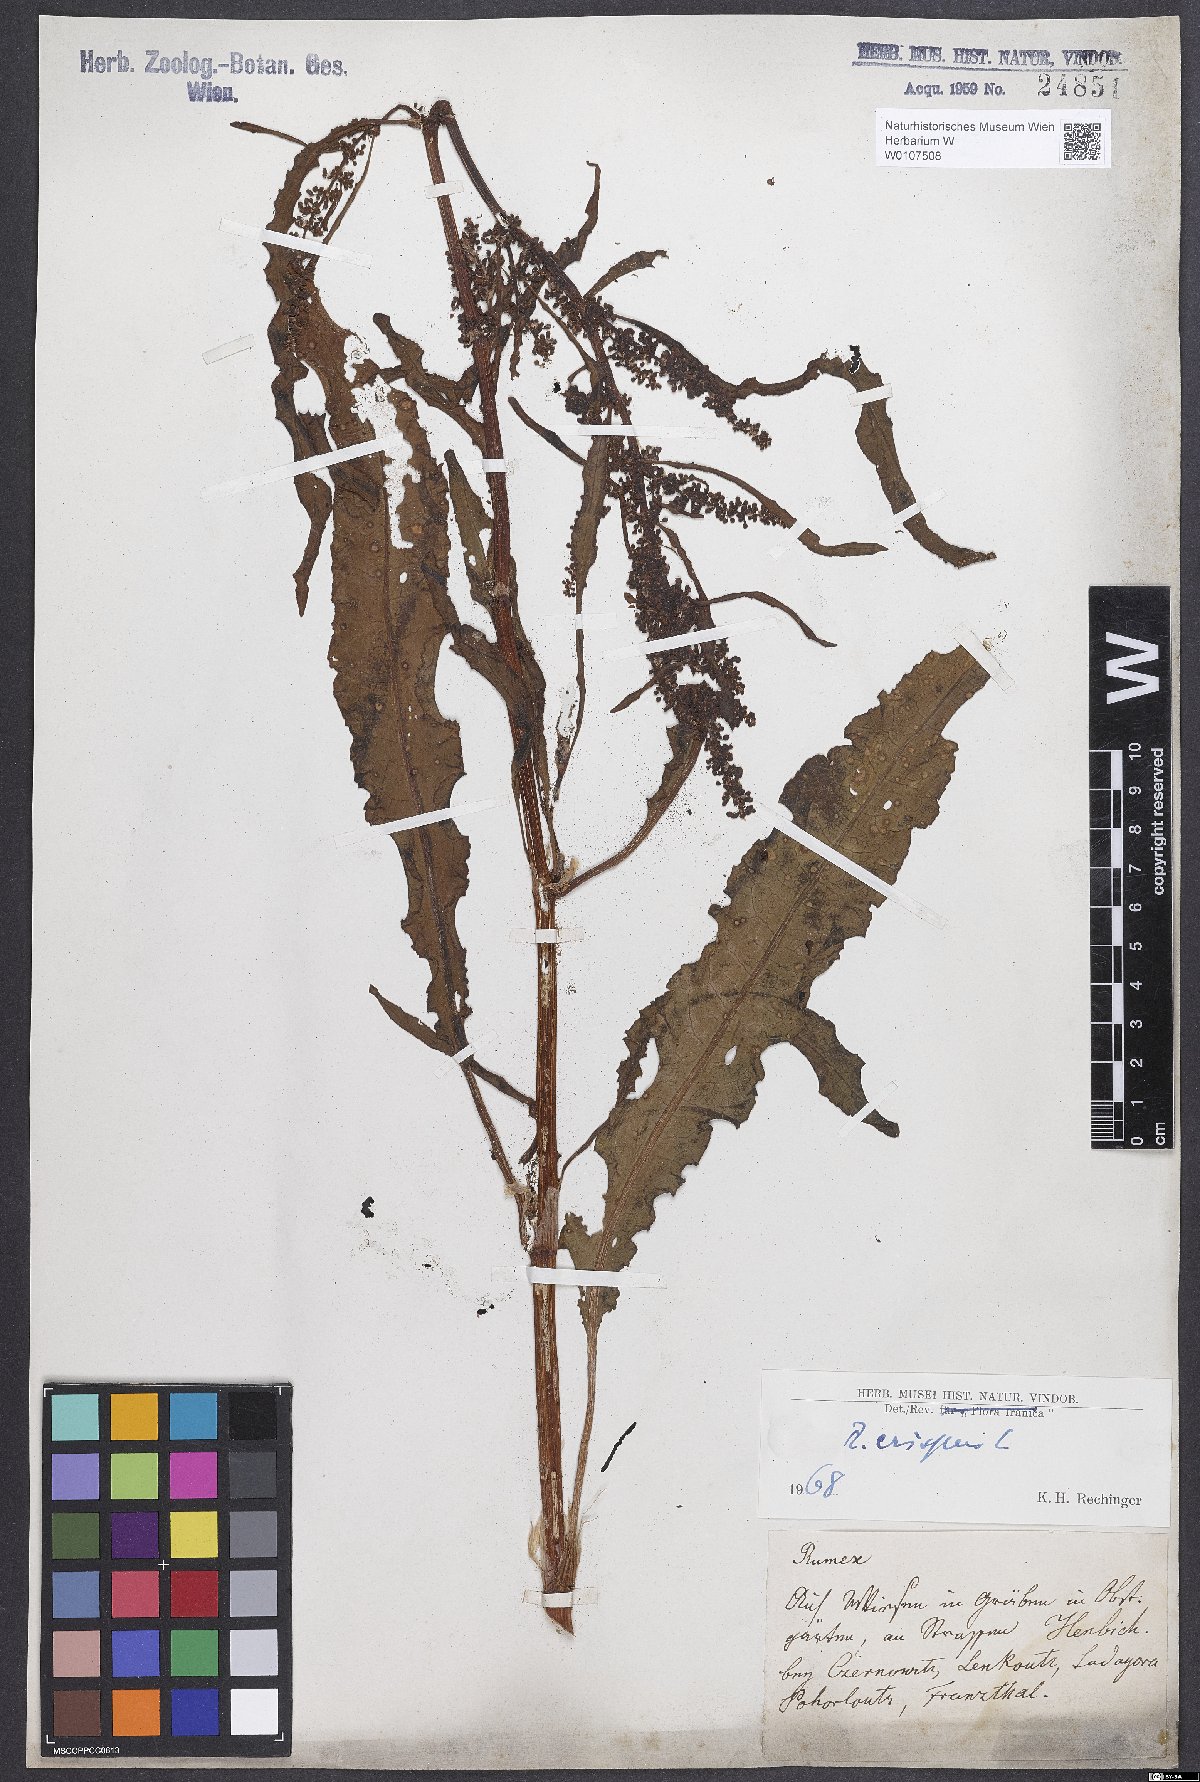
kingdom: Plantae
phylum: Tracheophyta
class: Magnoliopsida
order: Caryophyllales
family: Polygonaceae
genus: Rumex
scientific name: Rumex crispus
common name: Curled dock
